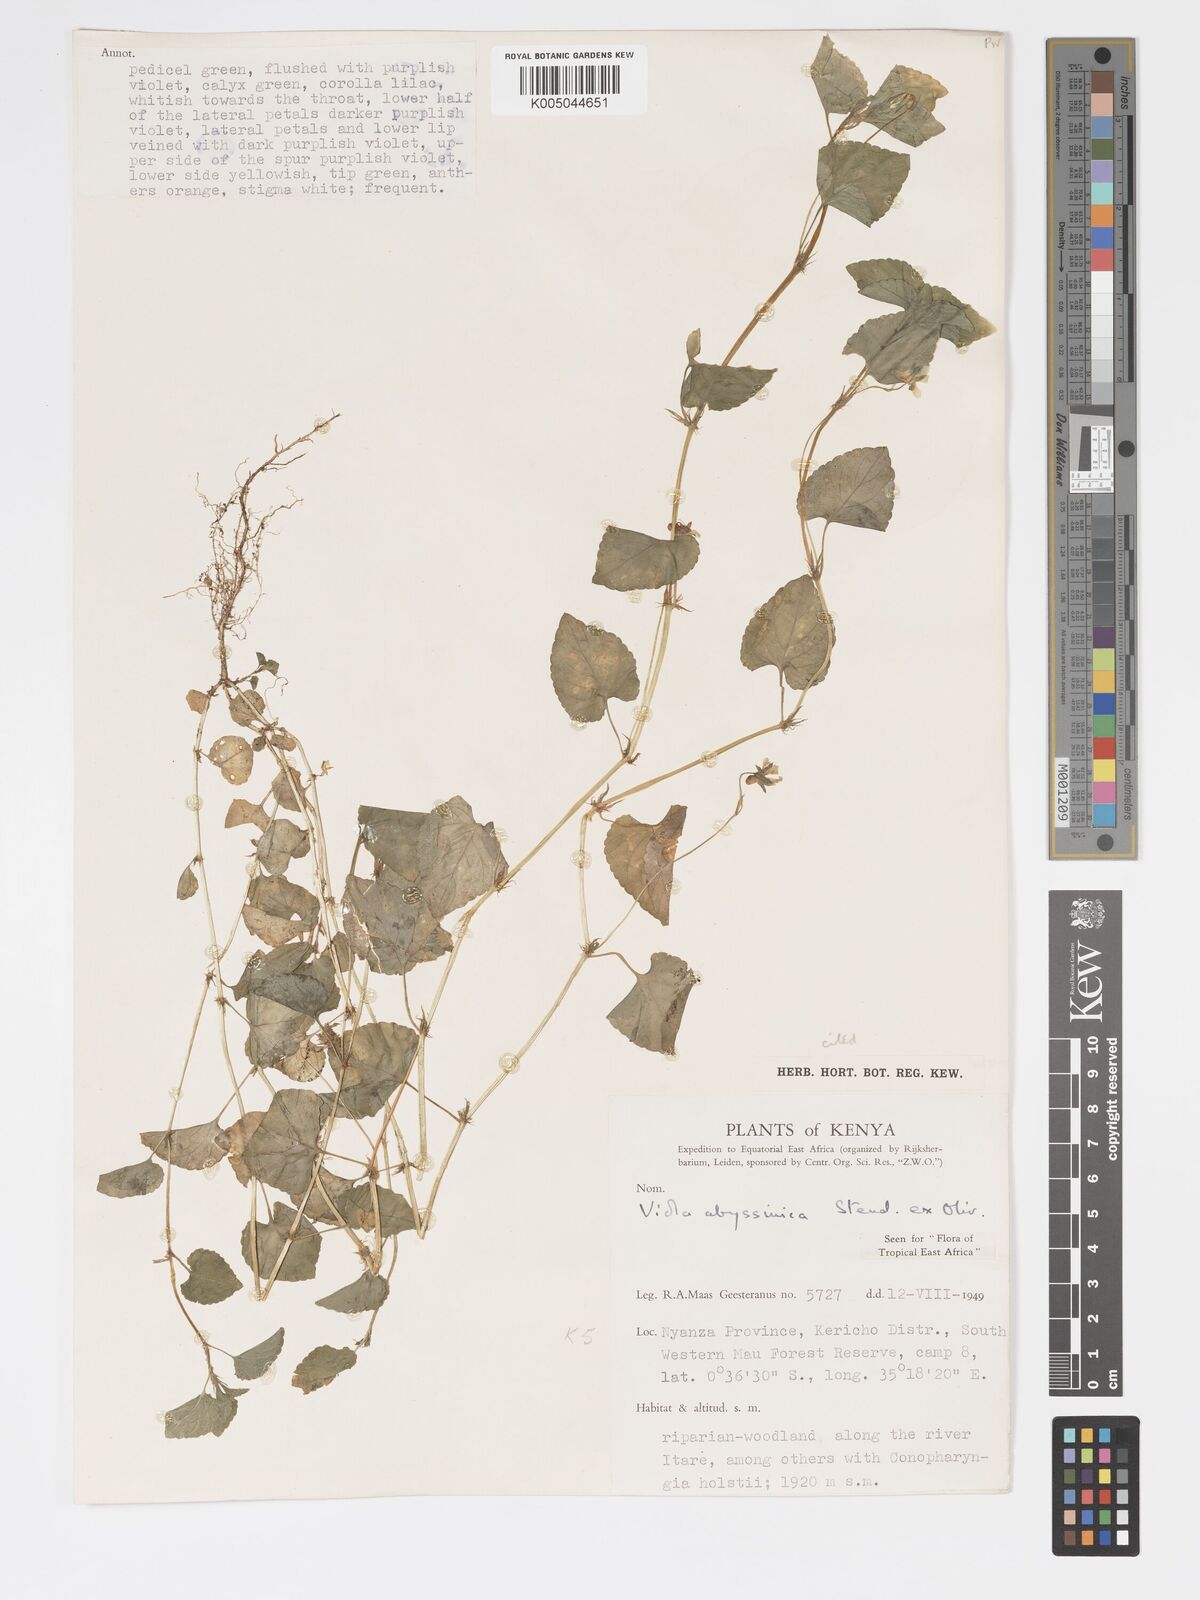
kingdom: Plantae
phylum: Tracheophyta
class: Magnoliopsida
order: Malpighiales
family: Violaceae
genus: Viola
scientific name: Viola abyssinica
